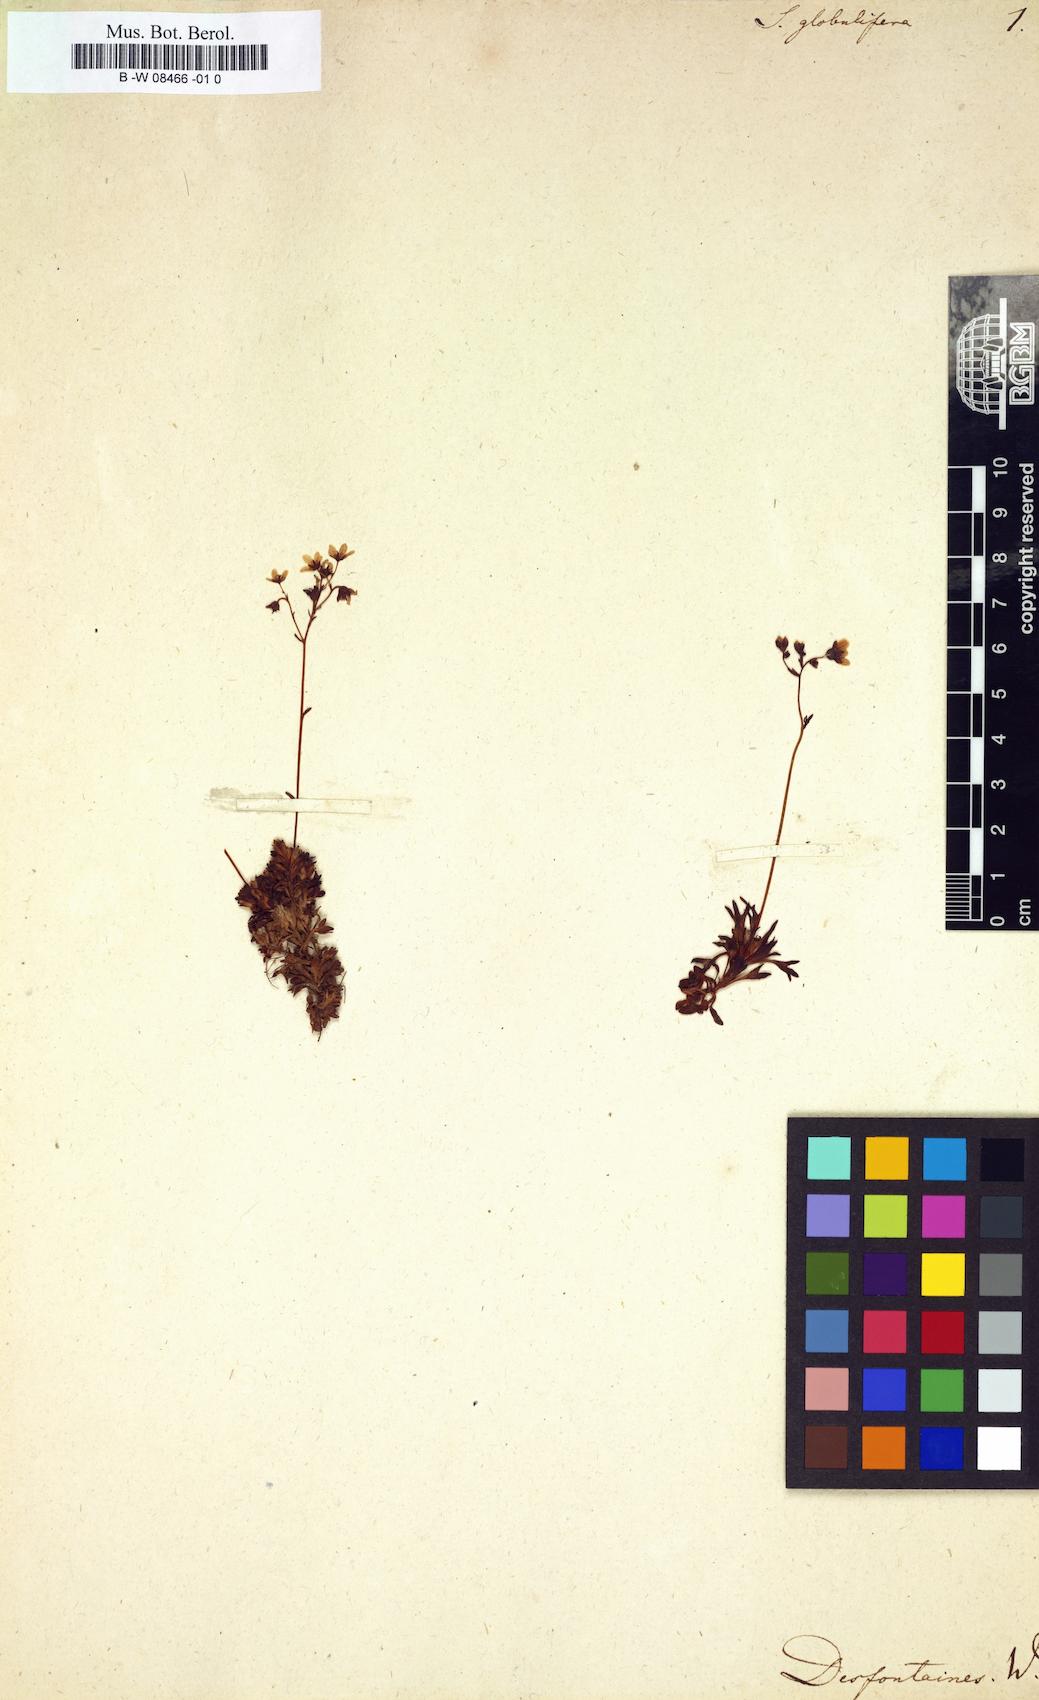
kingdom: Plantae
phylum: Tracheophyta
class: Magnoliopsida
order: Saxifragales
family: Saxifragaceae
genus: Saxifraga
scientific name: Saxifraga globulifera
